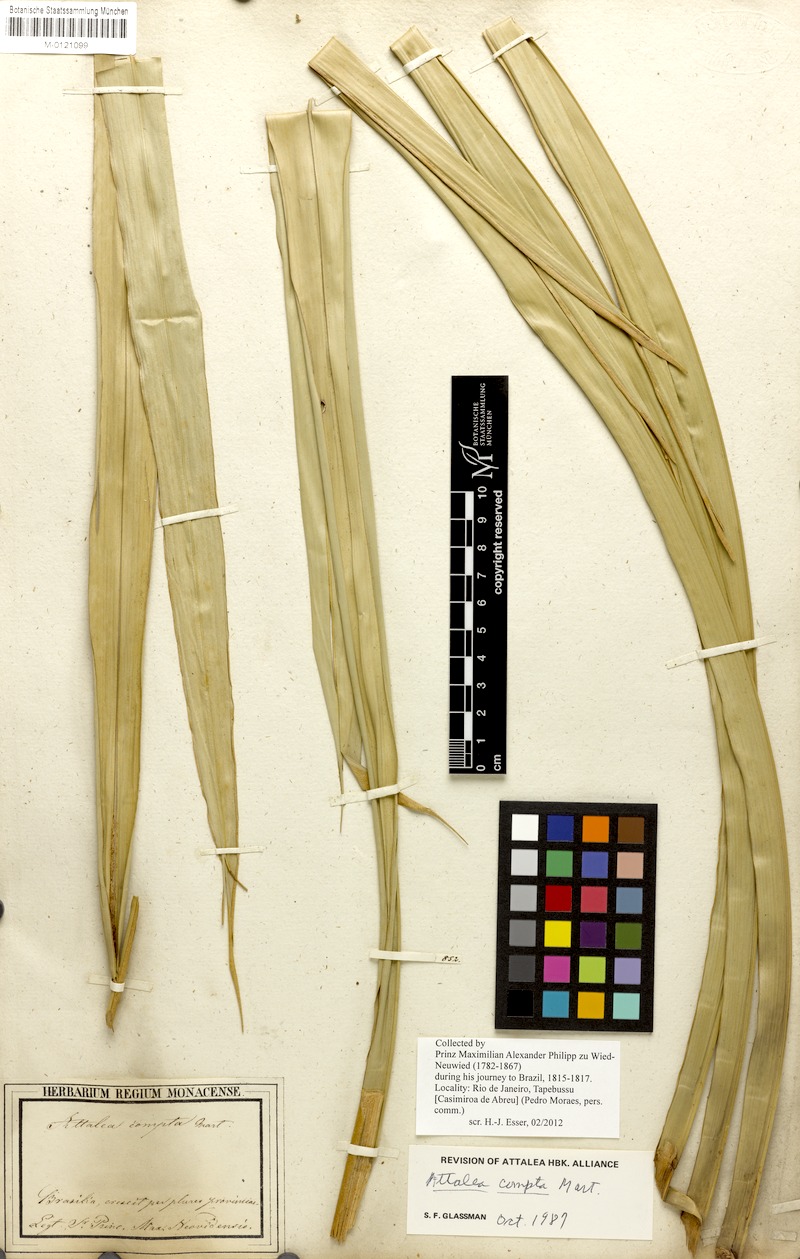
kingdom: Plantae
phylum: Tracheophyta
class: Liliopsida
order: Arecales
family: Arecaceae
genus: Attalea
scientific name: Attalea compta
